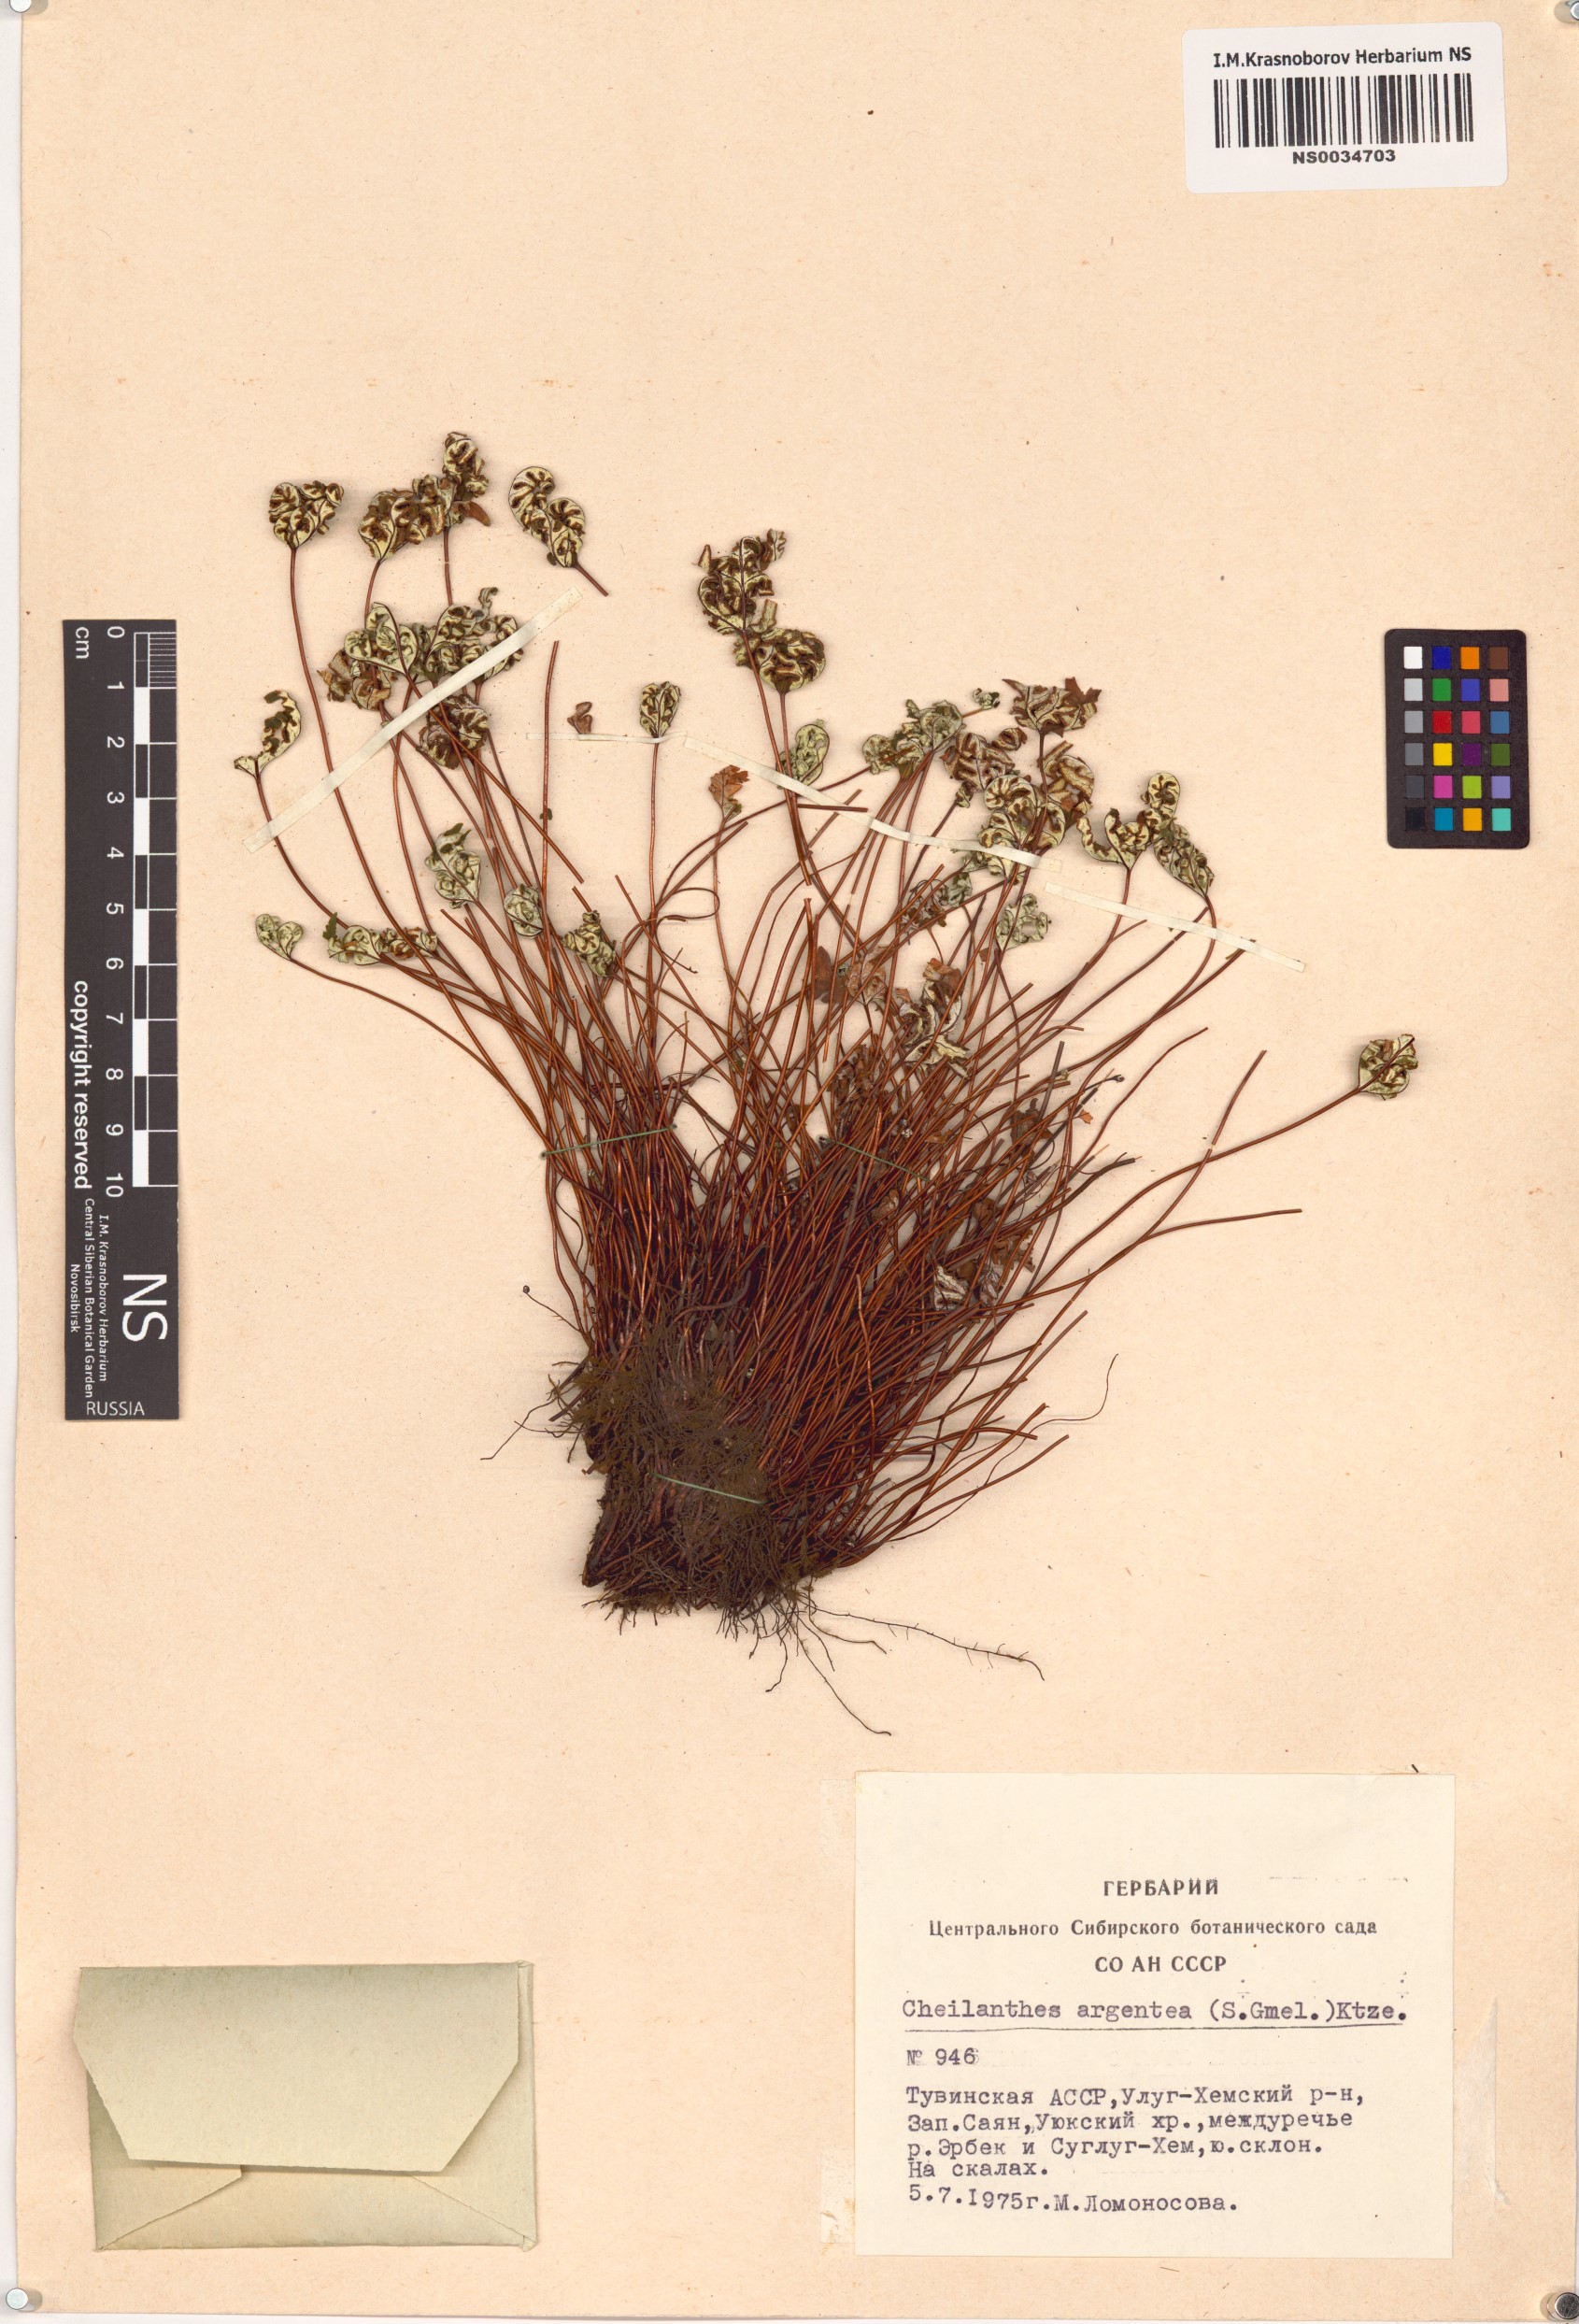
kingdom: Plantae
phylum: Tracheophyta
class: Polypodiopsida
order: Polypodiales
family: Pteridaceae
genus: Aleuritopteris
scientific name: Aleuritopteris argentea
